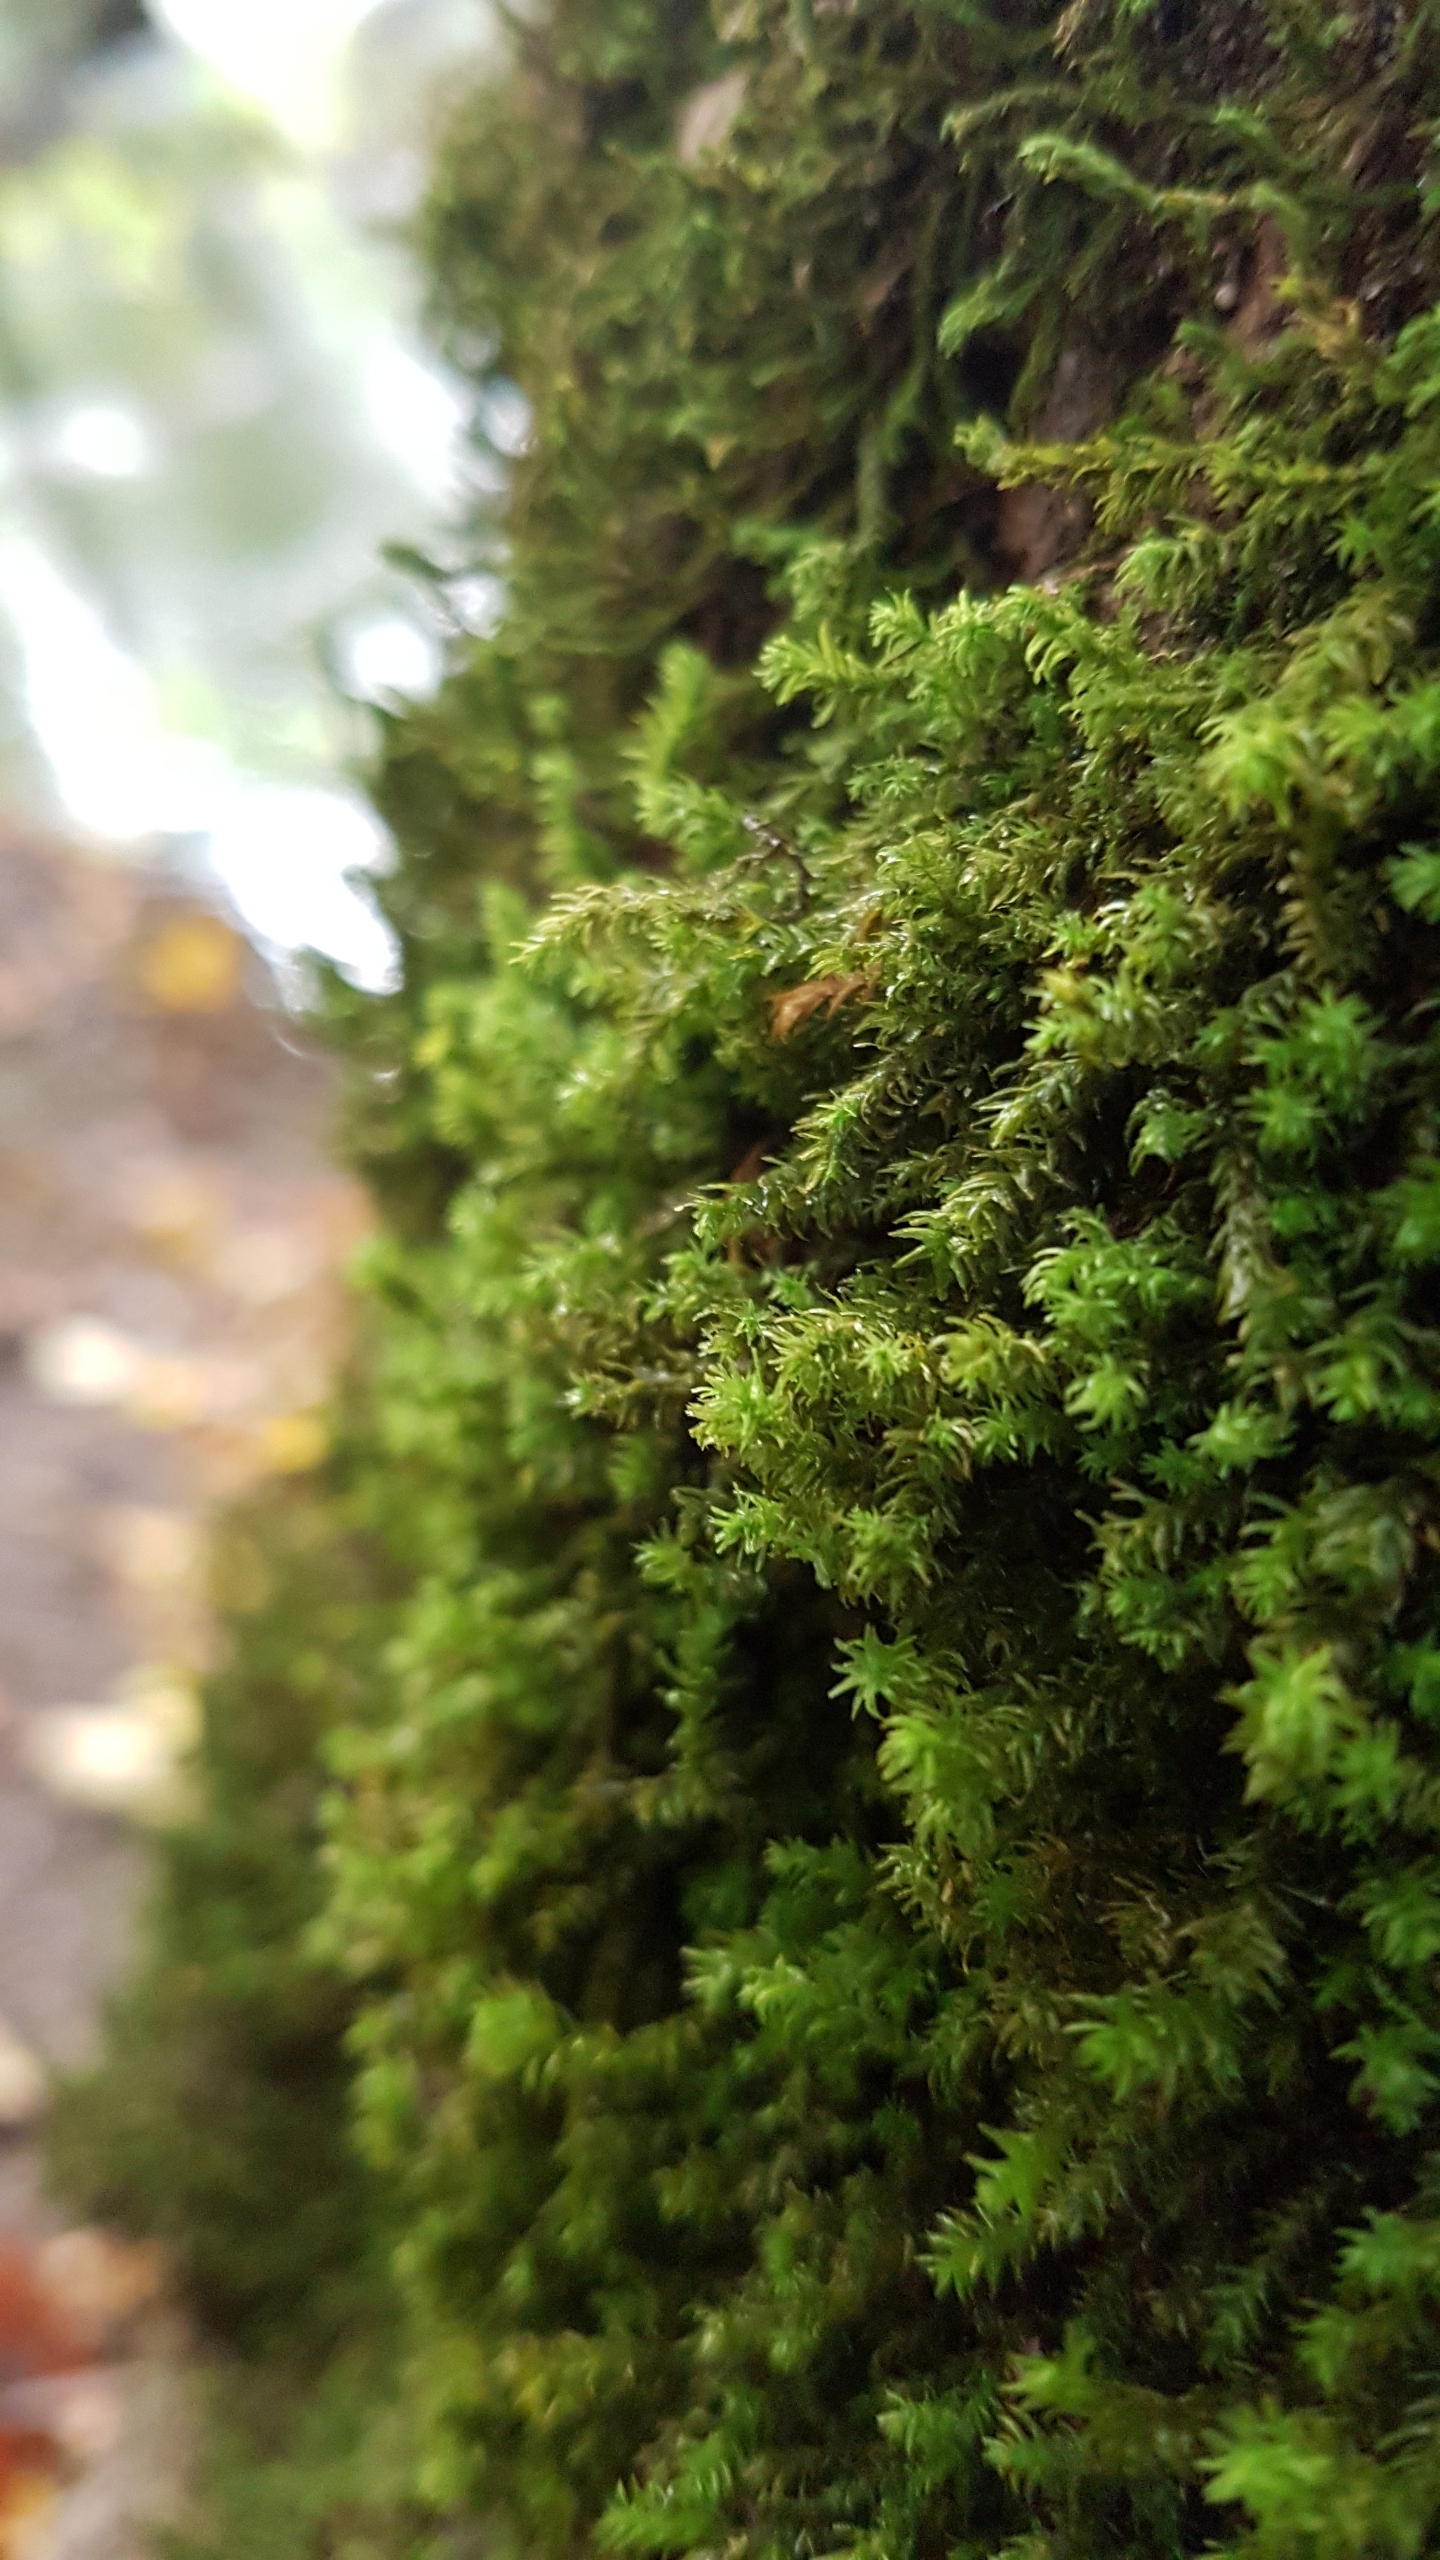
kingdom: Plantae
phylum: Bryophyta
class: Bryopsida
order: Hypnales
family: Anomodontaceae
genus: Anomodon
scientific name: Anomodon viticulosus
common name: Robust matblad
